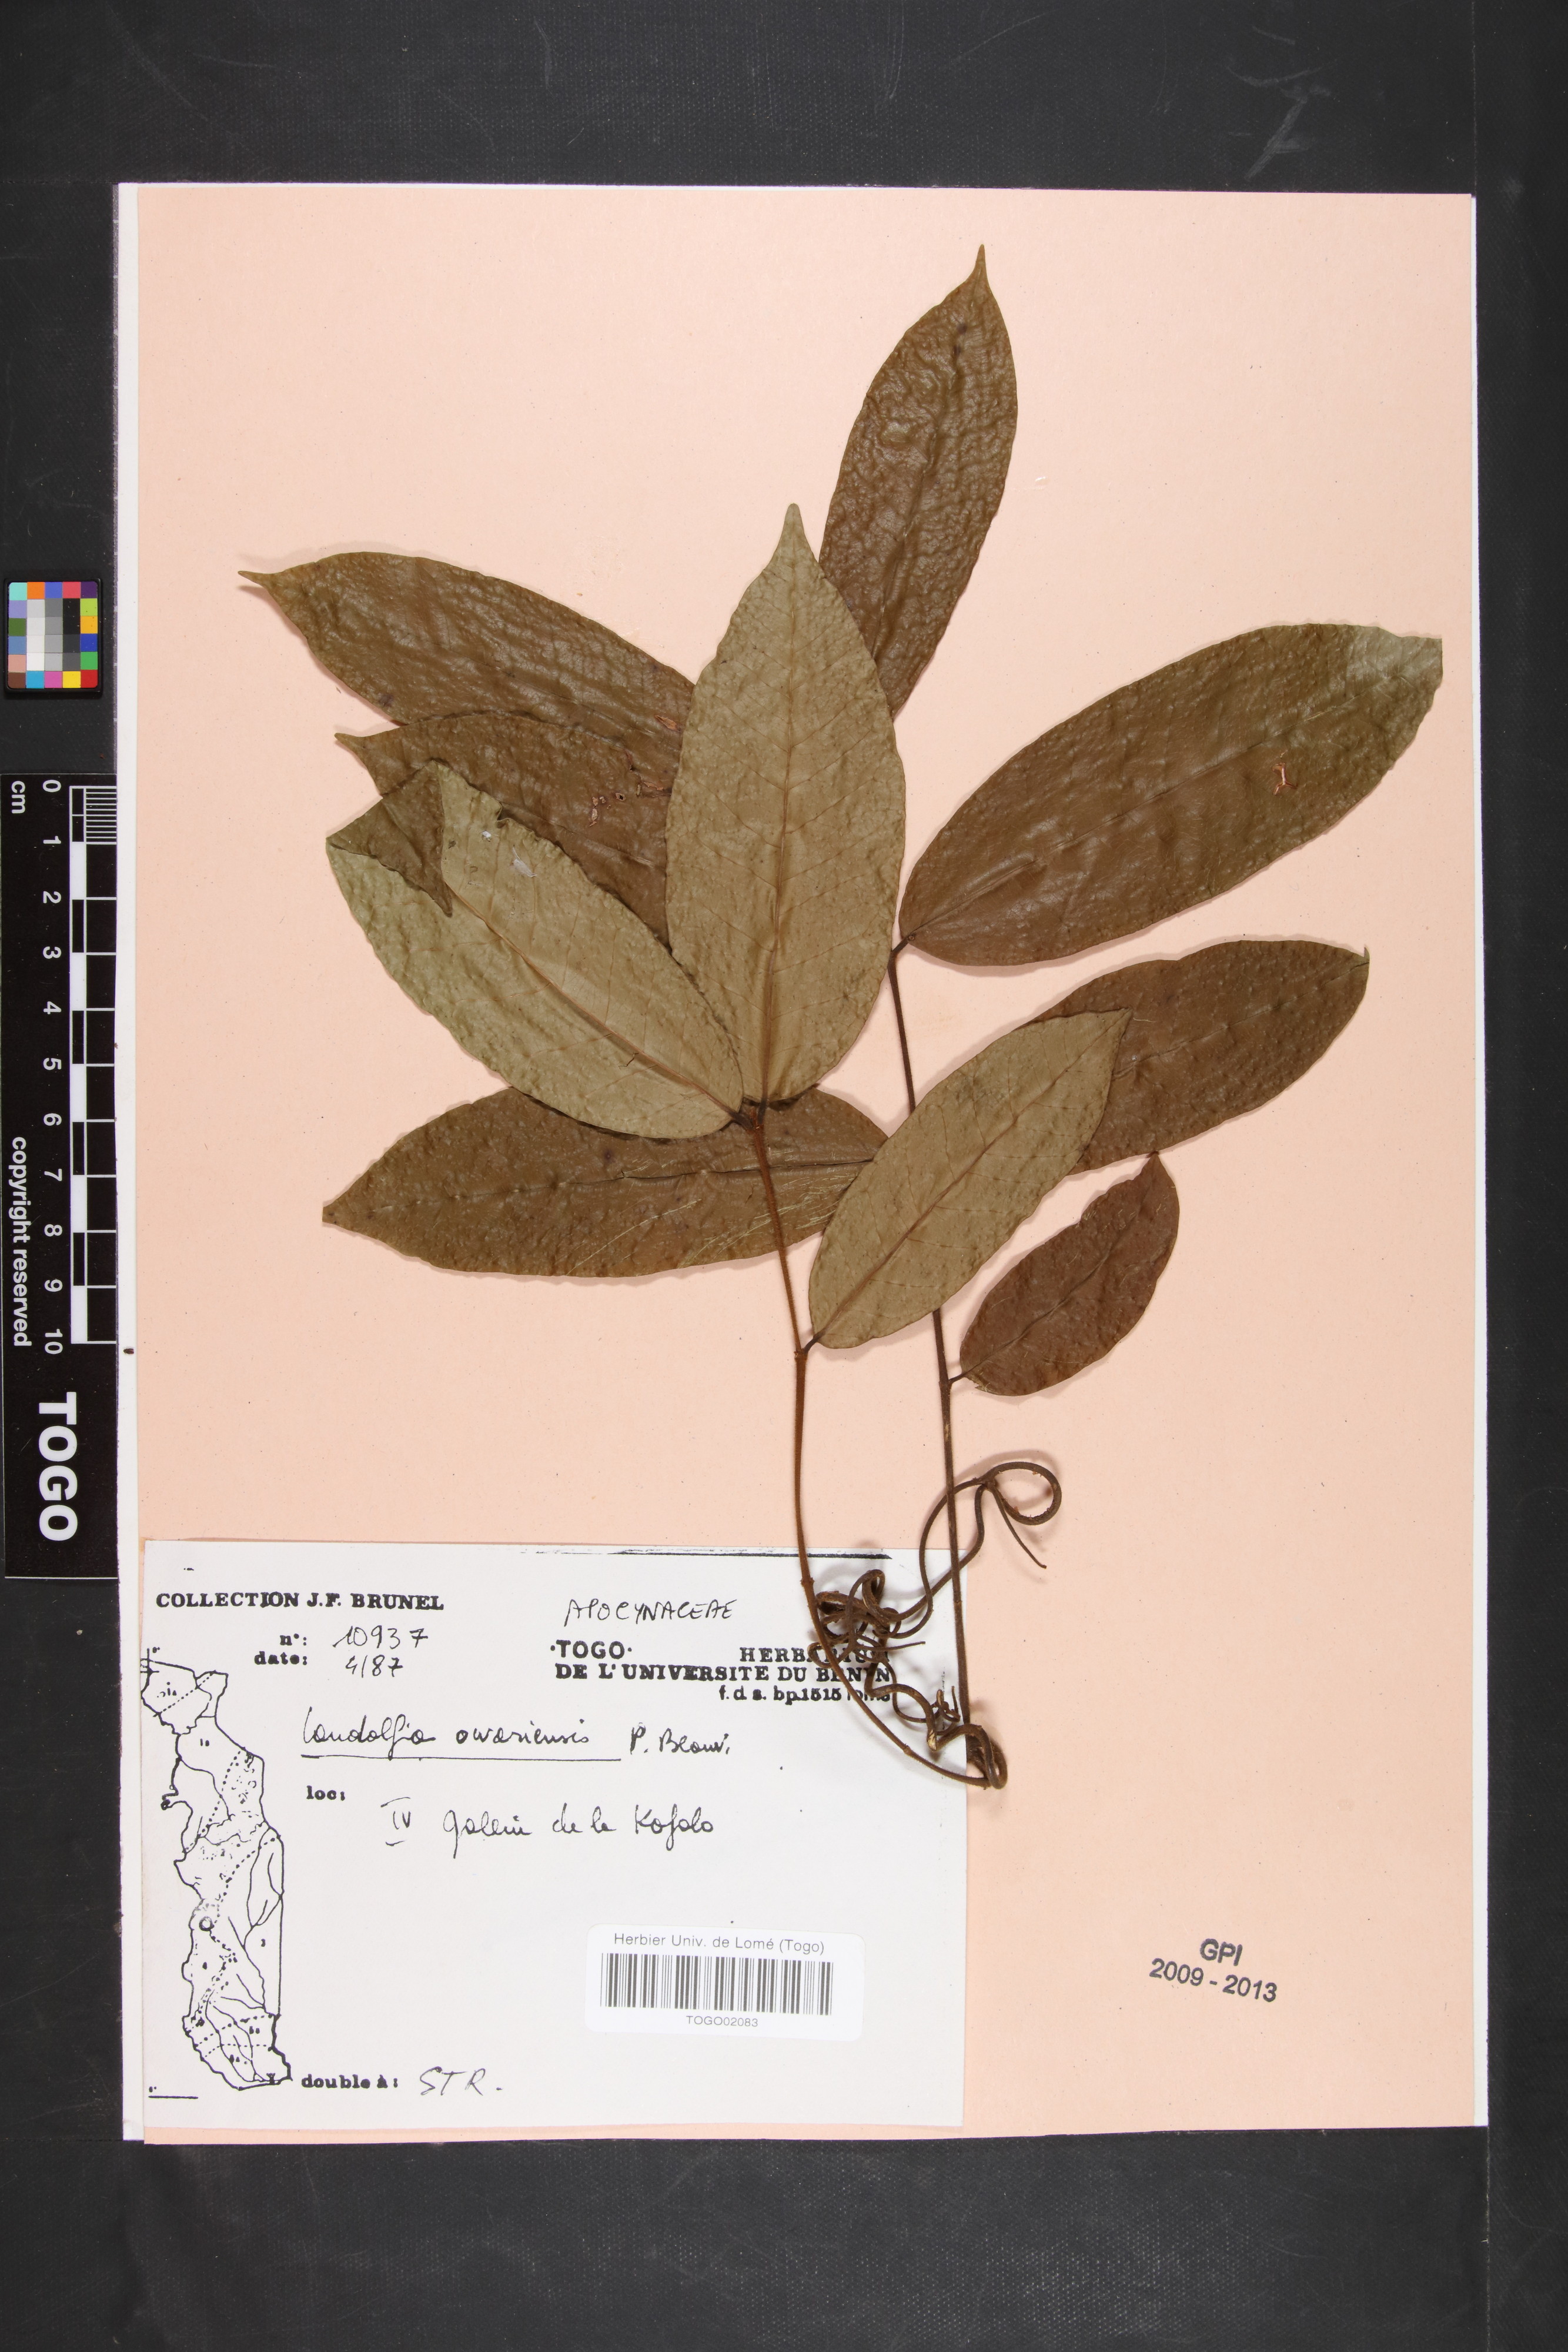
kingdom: Plantae
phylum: Tracheophyta
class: Magnoliopsida
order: Gentianales
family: Apocynaceae
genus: Landolphia
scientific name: Landolphia owariensis
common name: White-ball-rubber
